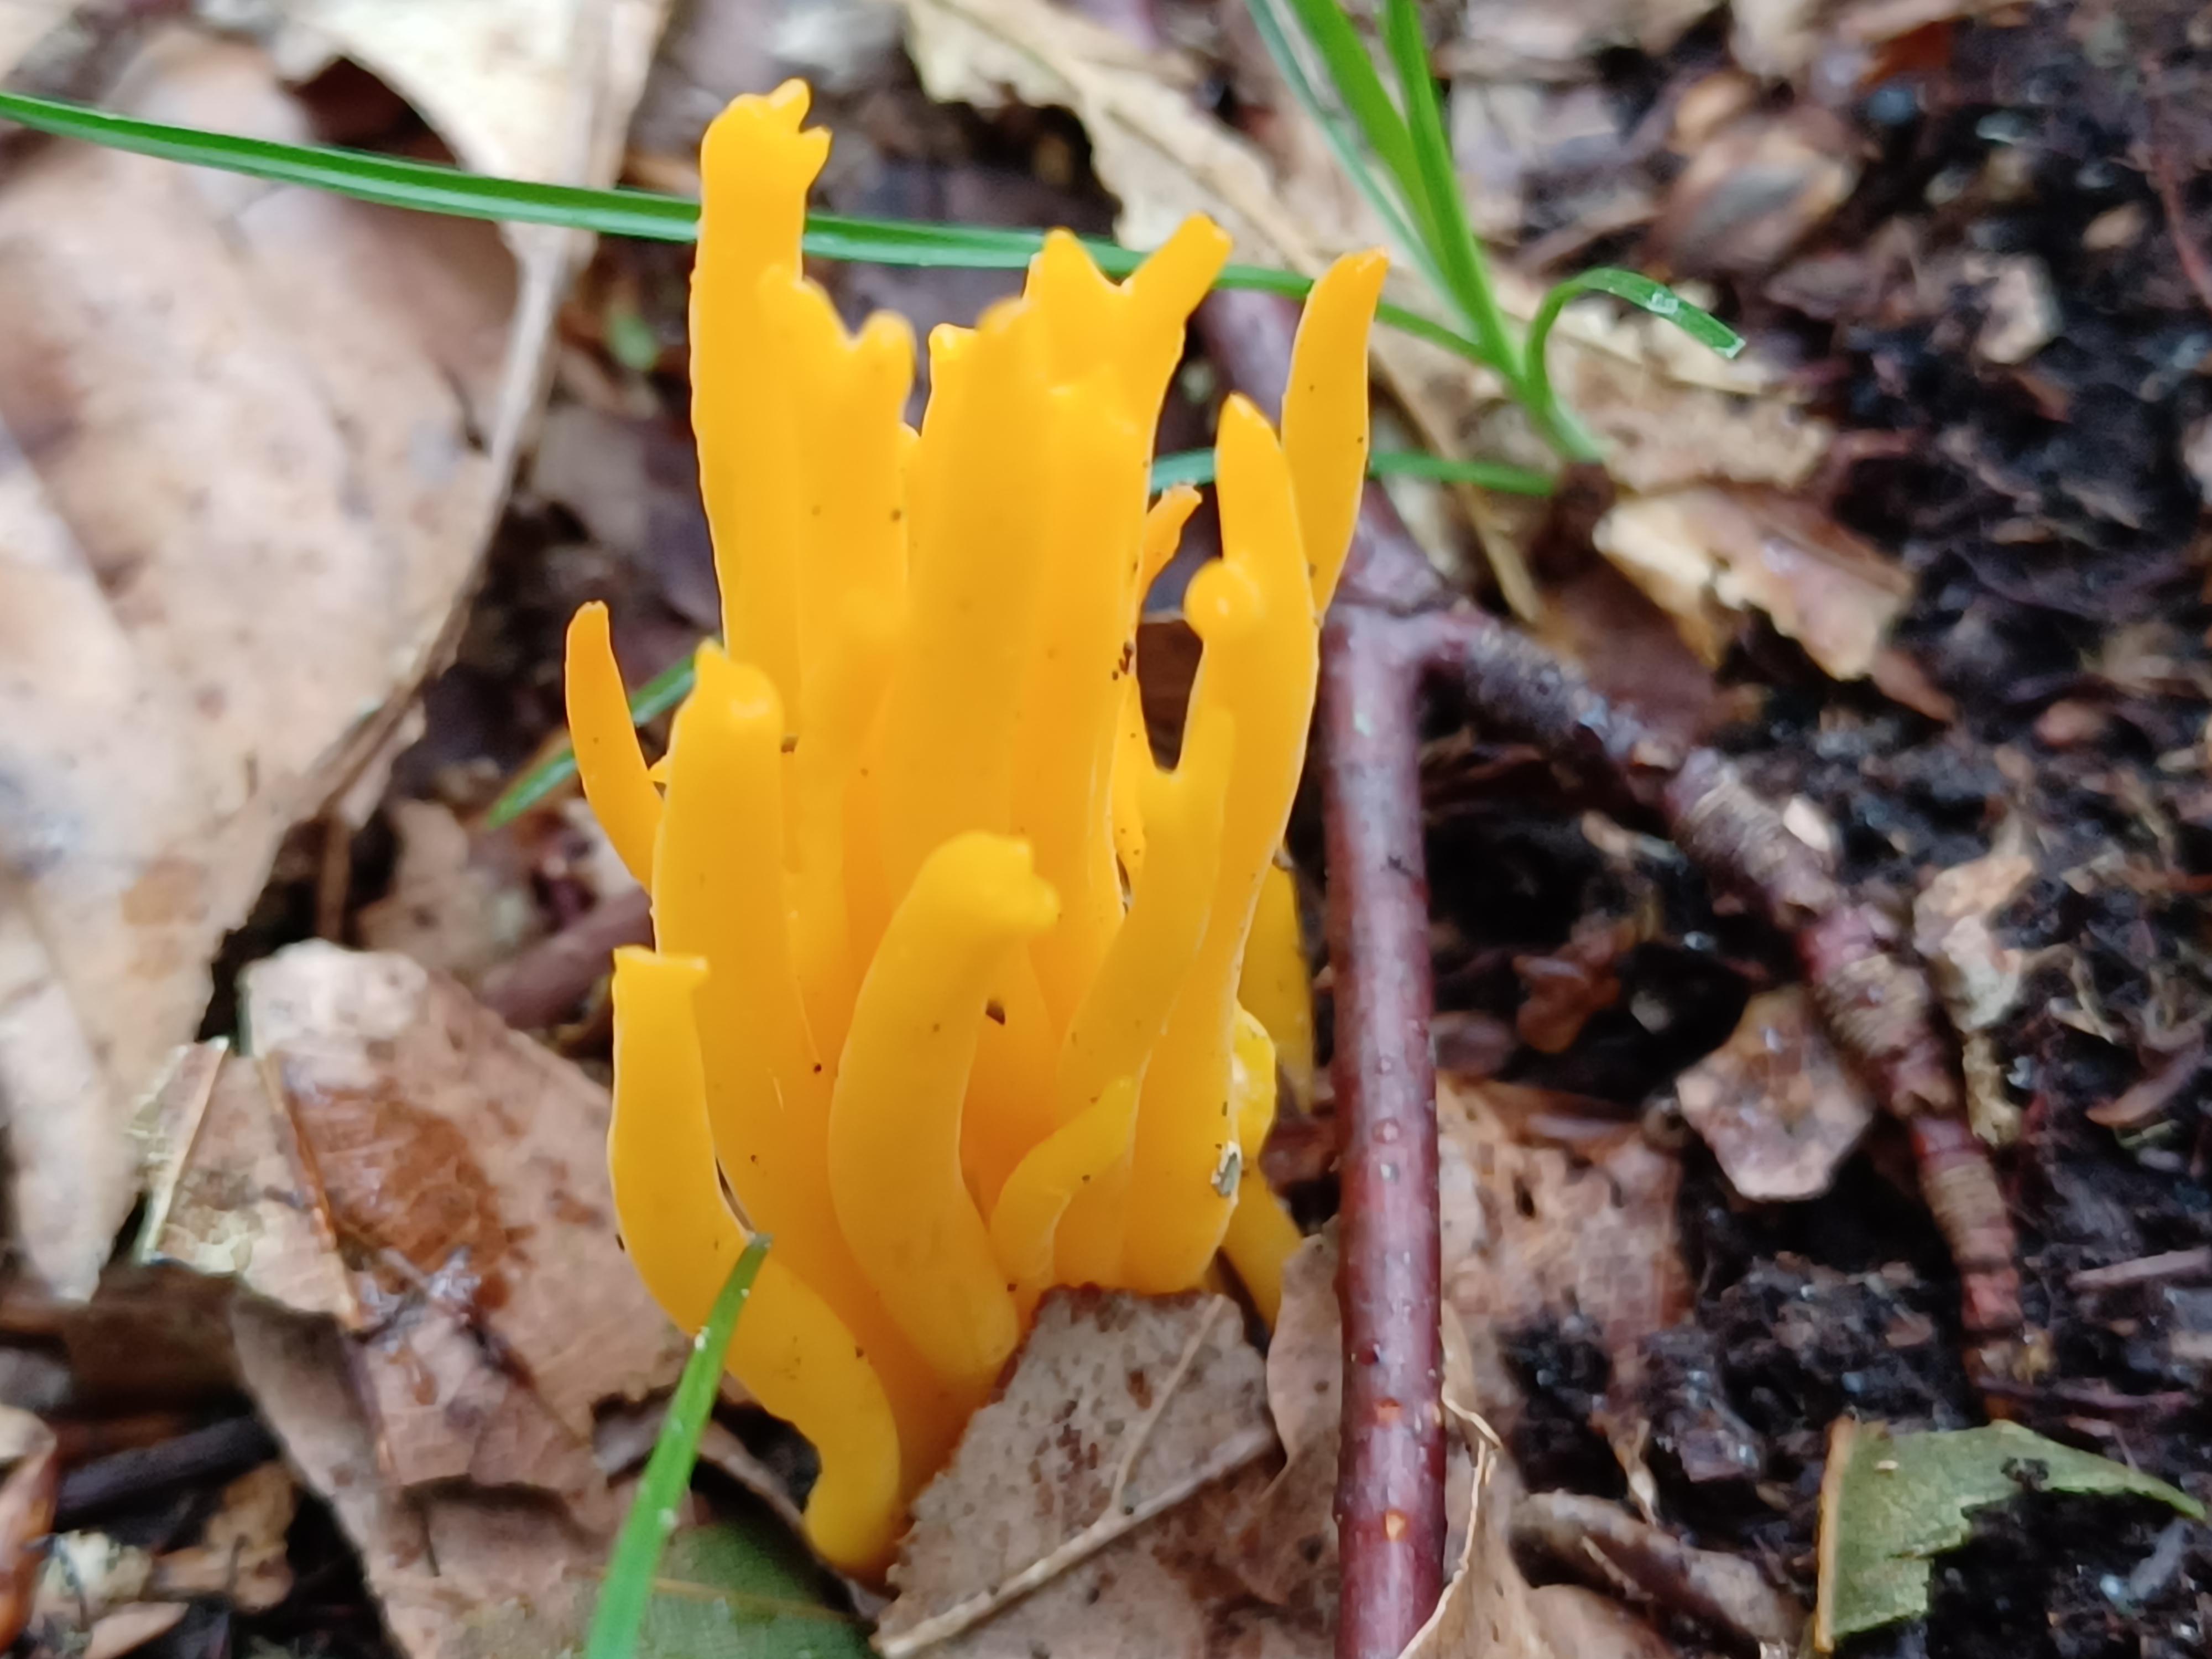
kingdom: Fungi
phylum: Basidiomycota
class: Dacrymycetes
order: Dacrymycetales
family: Dacrymycetaceae
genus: Calocera
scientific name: Calocera viscosa
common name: almindelig guldgaffel
